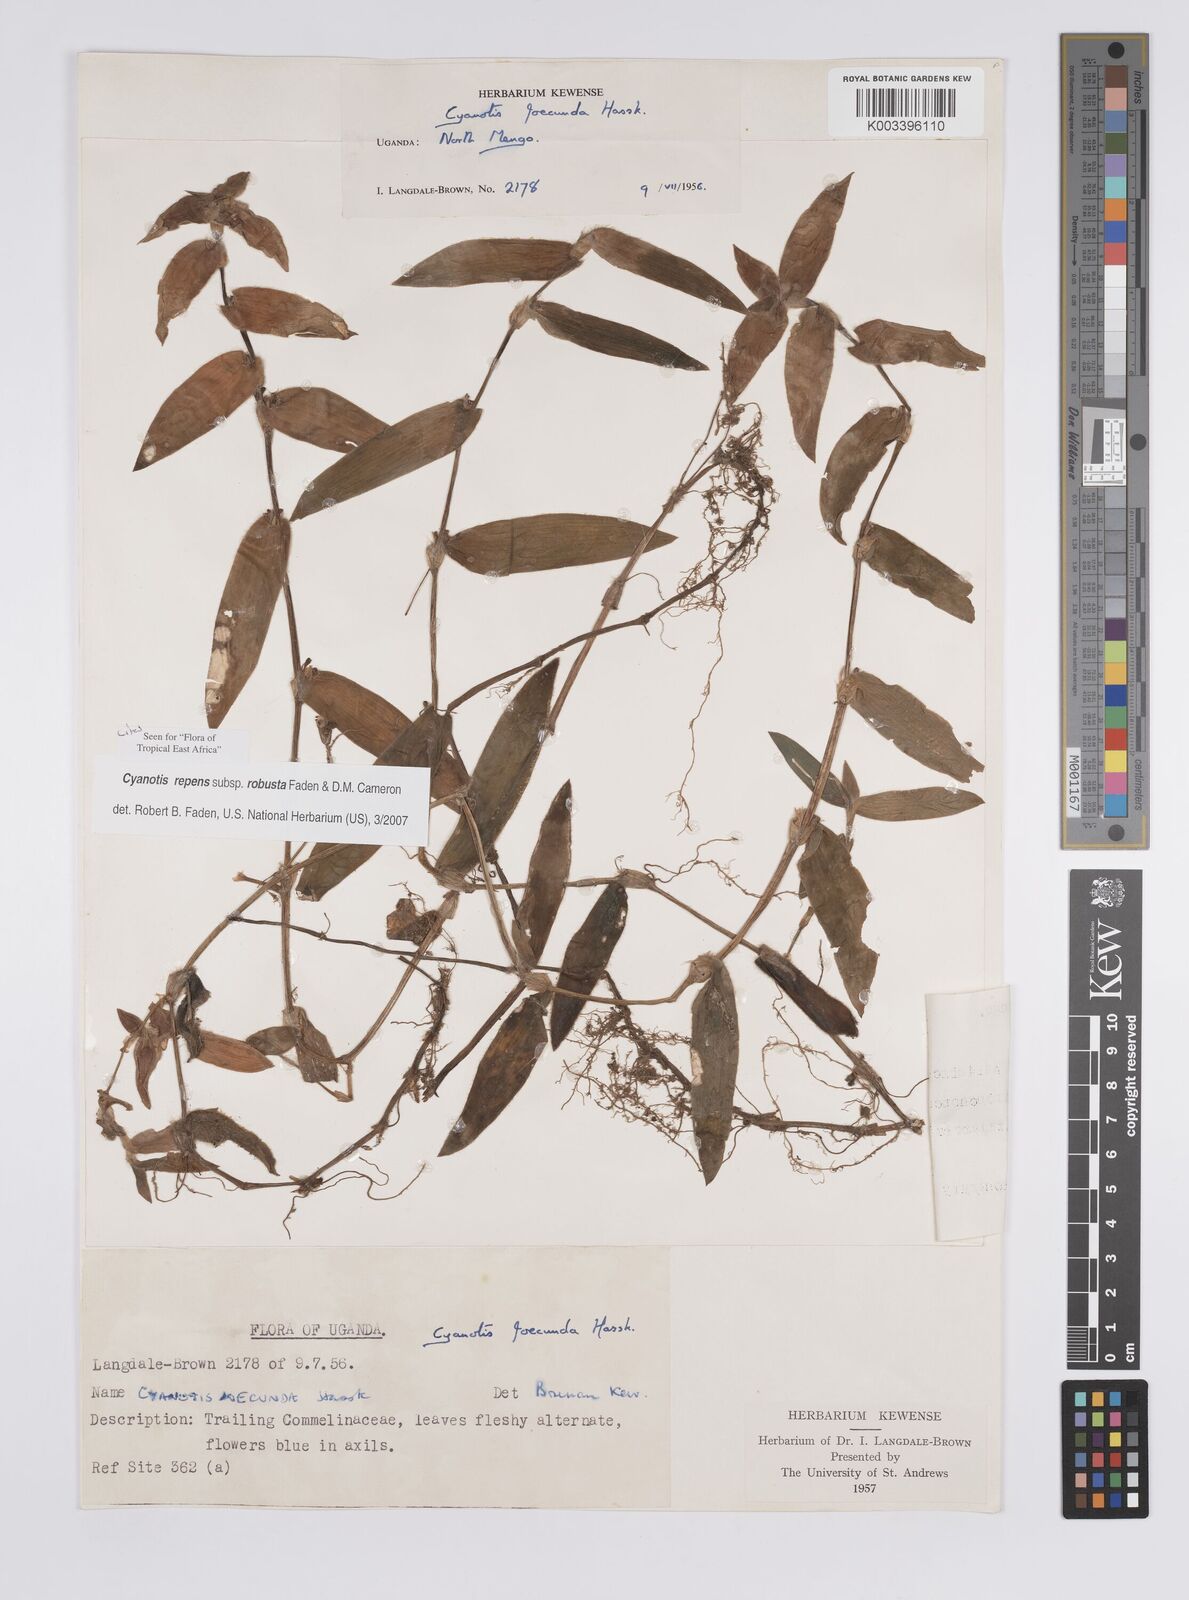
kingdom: Plantae
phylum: Tracheophyta
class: Liliopsida
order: Commelinales
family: Commelinaceae
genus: Cyanotis
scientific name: Cyanotis repens
